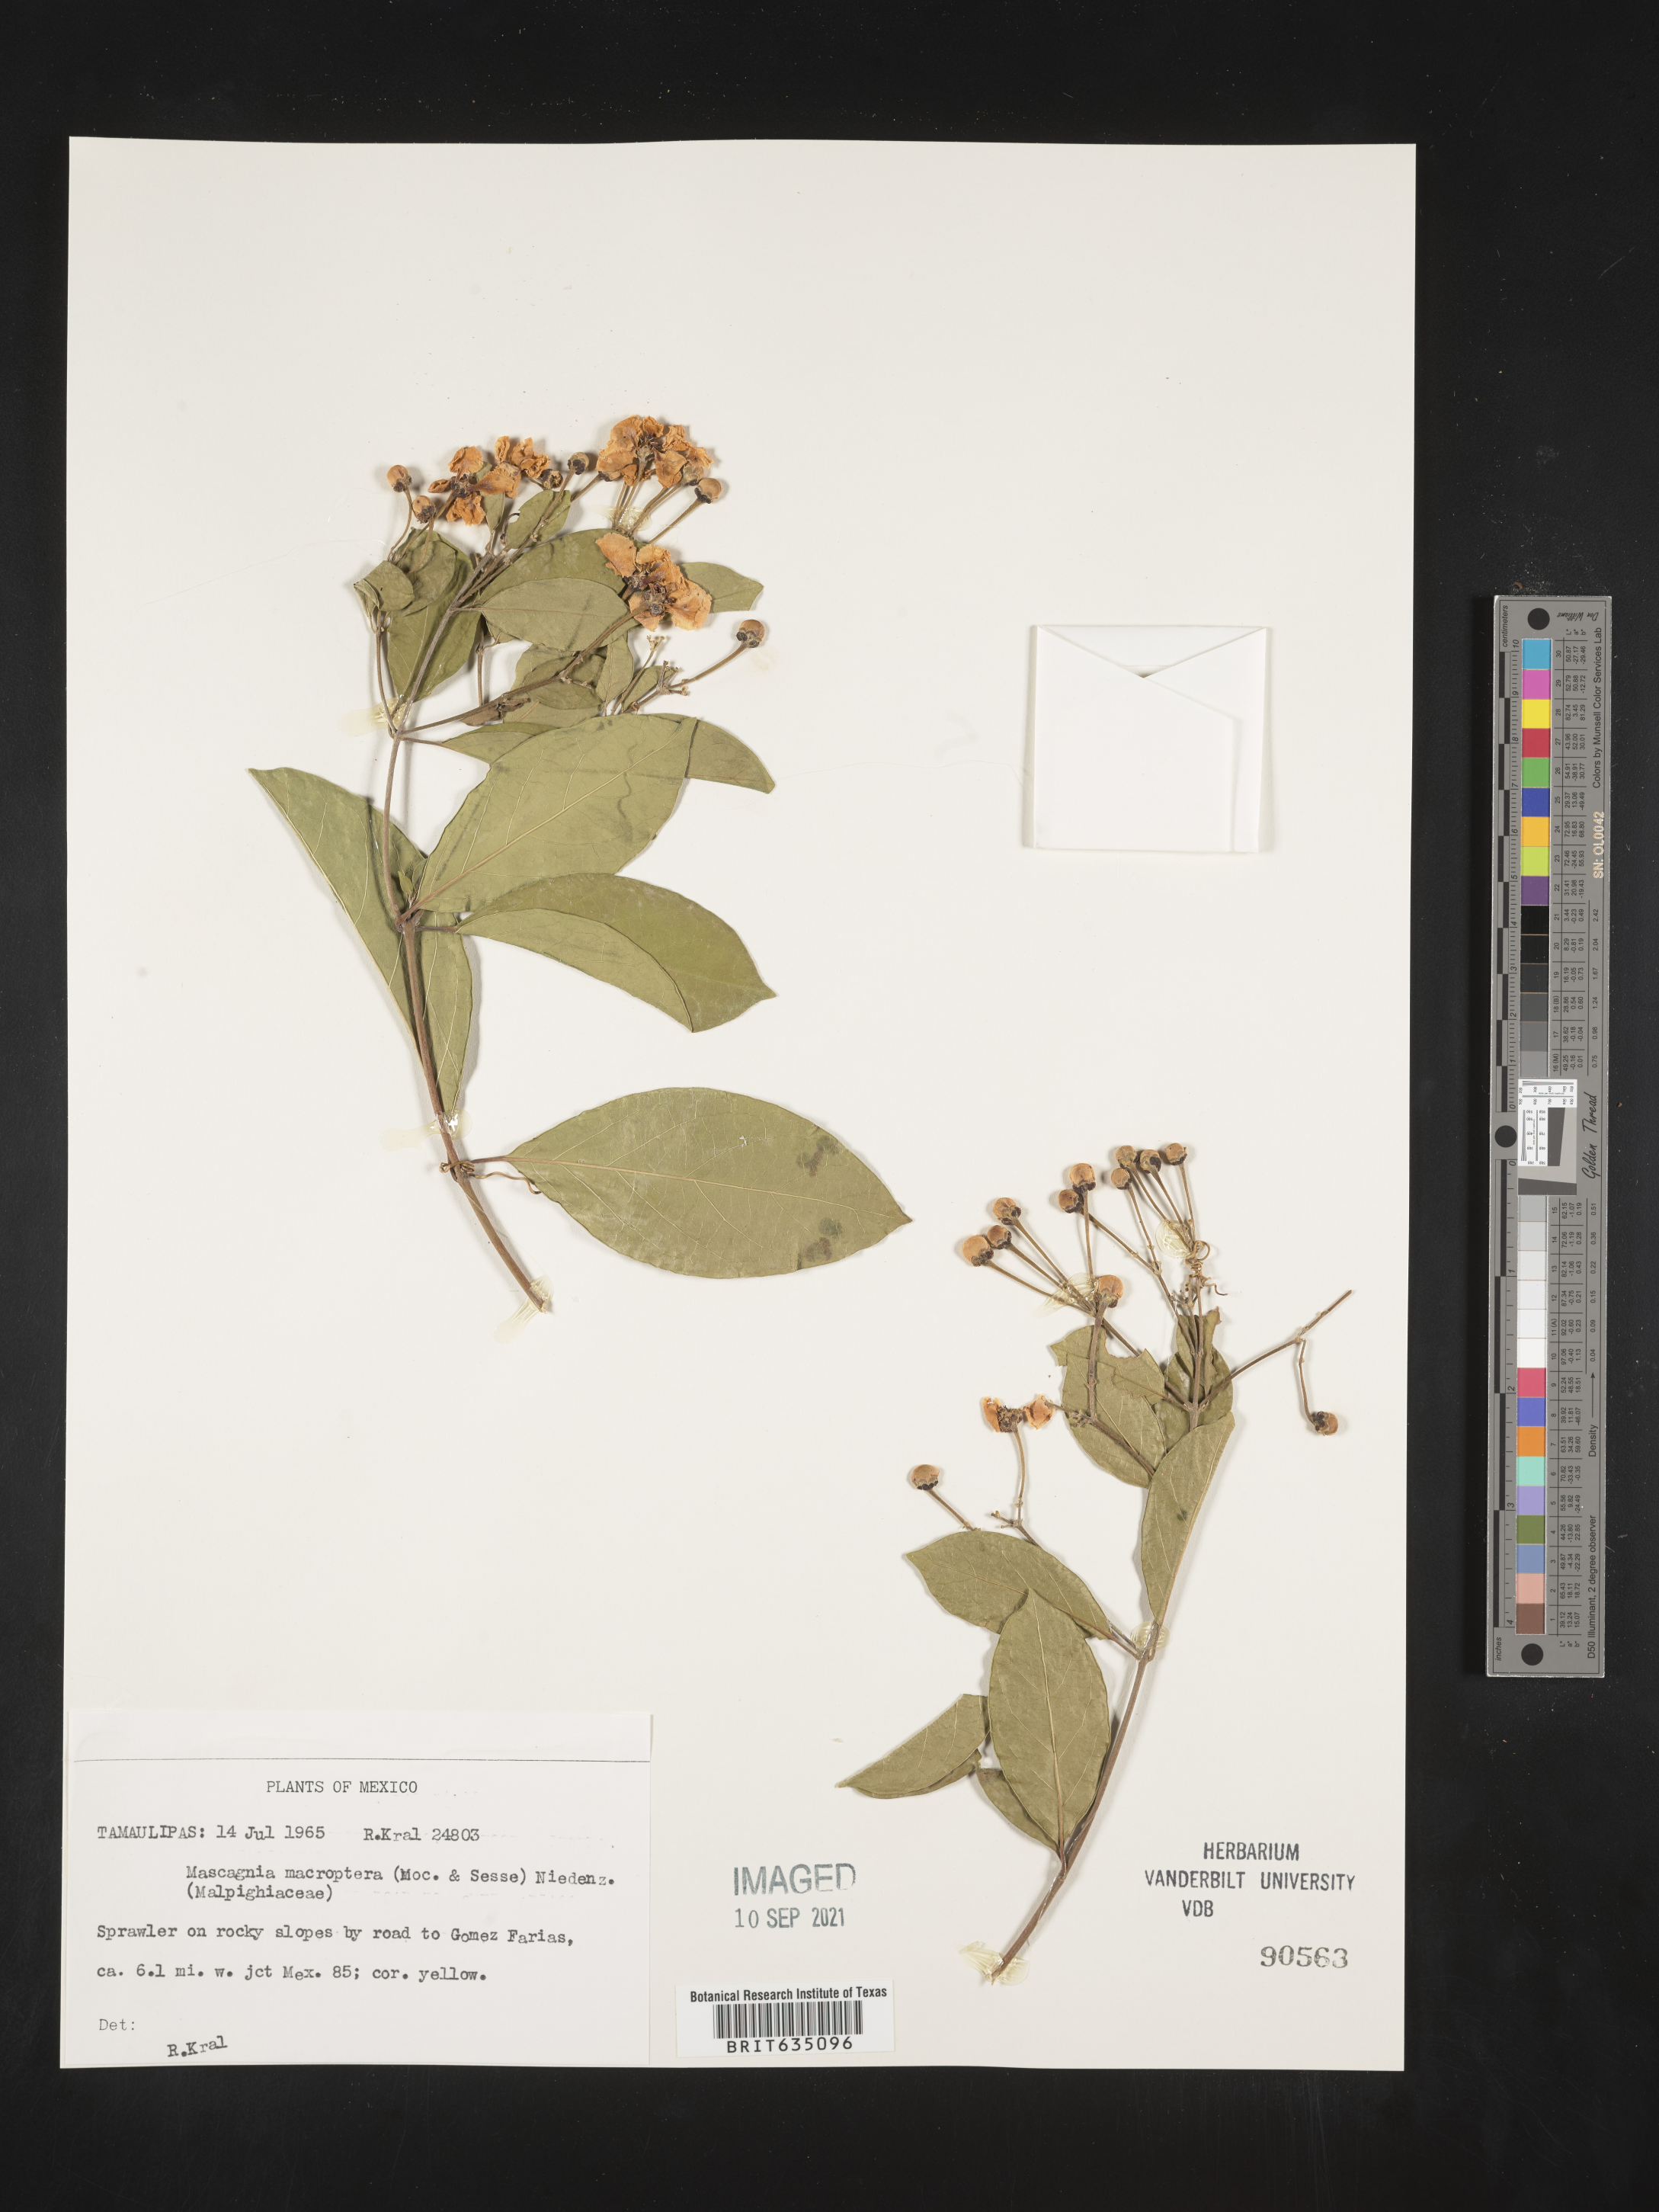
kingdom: Plantae
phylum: Tracheophyta
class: Magnoliopsida
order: Malpighiales
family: Malpighiaceae
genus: Mascagnia
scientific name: Mascagnia
